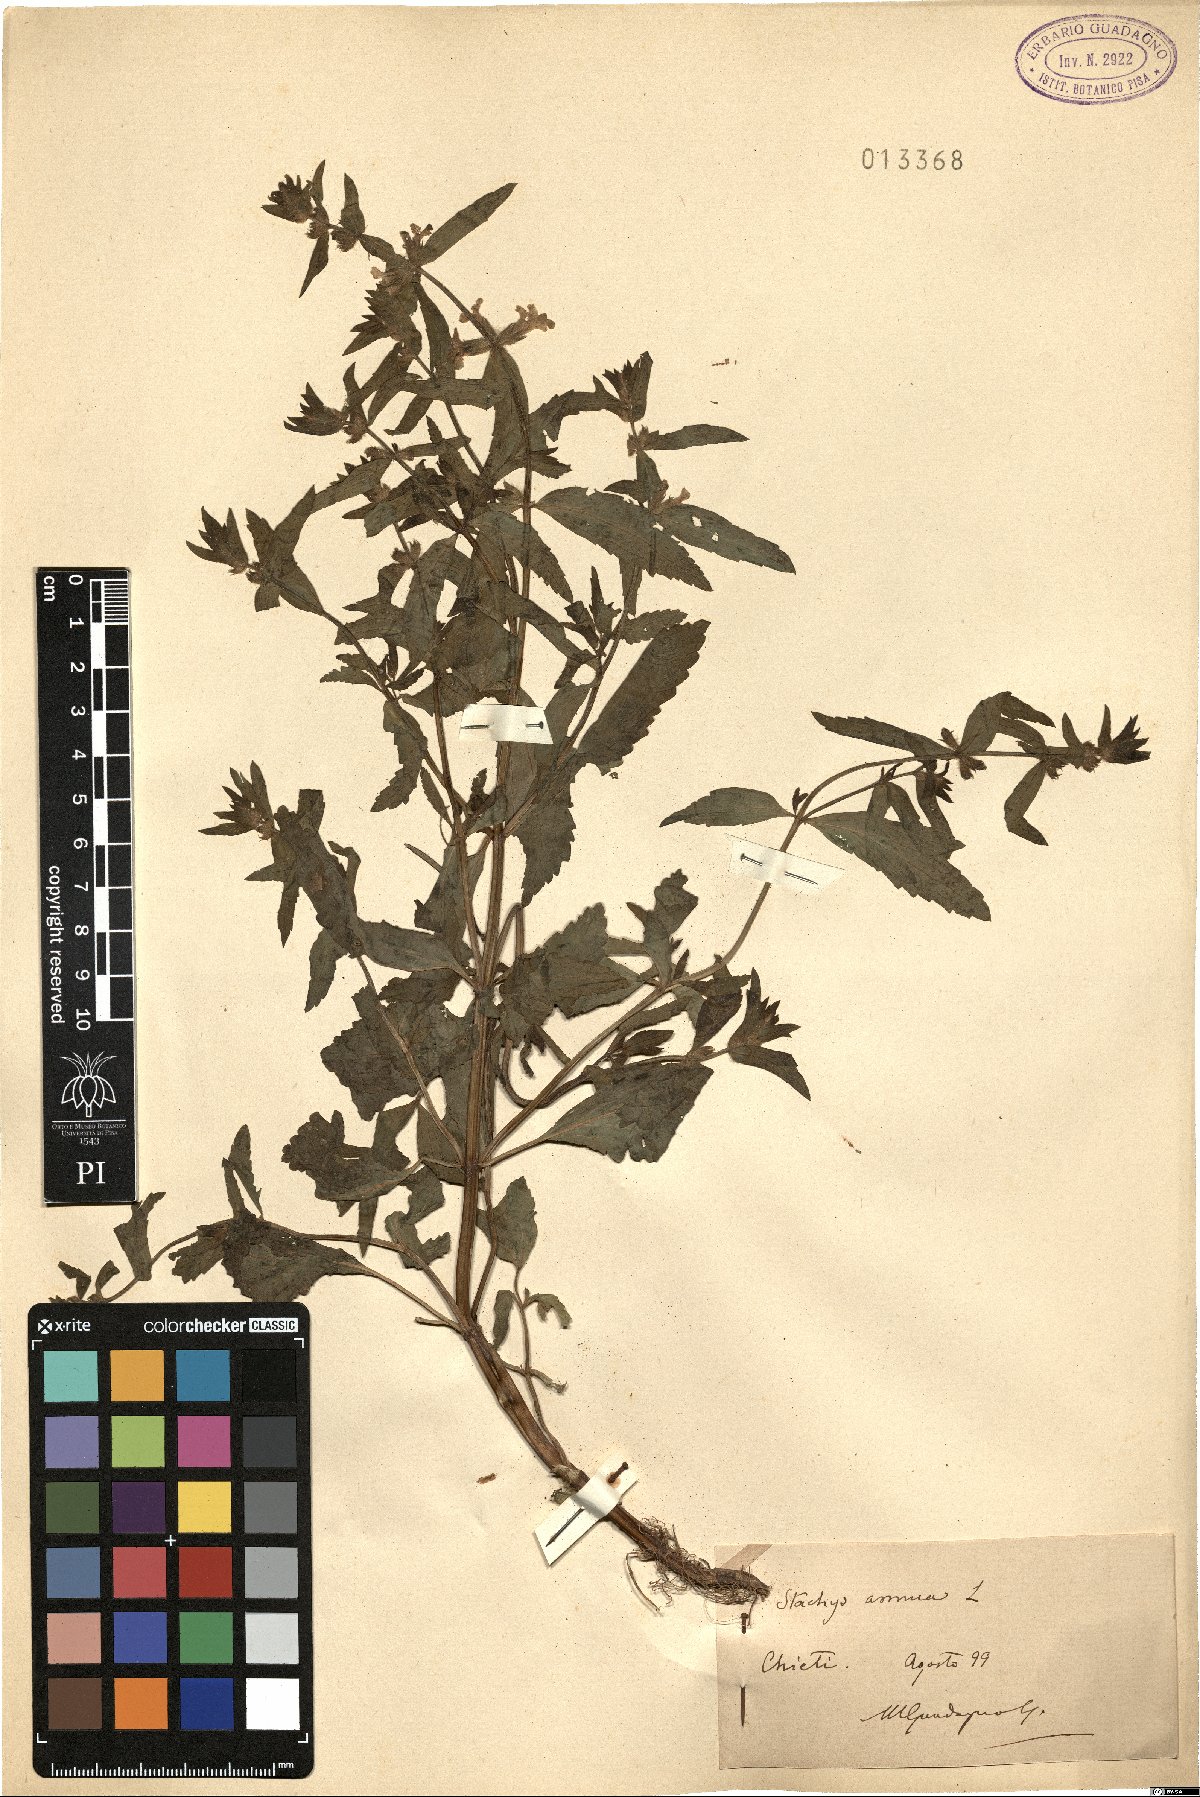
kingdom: Plantae
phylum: Tracheophyta
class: Magnoliopsida
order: Lamiales
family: Lamiaceae
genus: Stachys
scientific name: Stachys annua
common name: Annual yellow-woundwort
